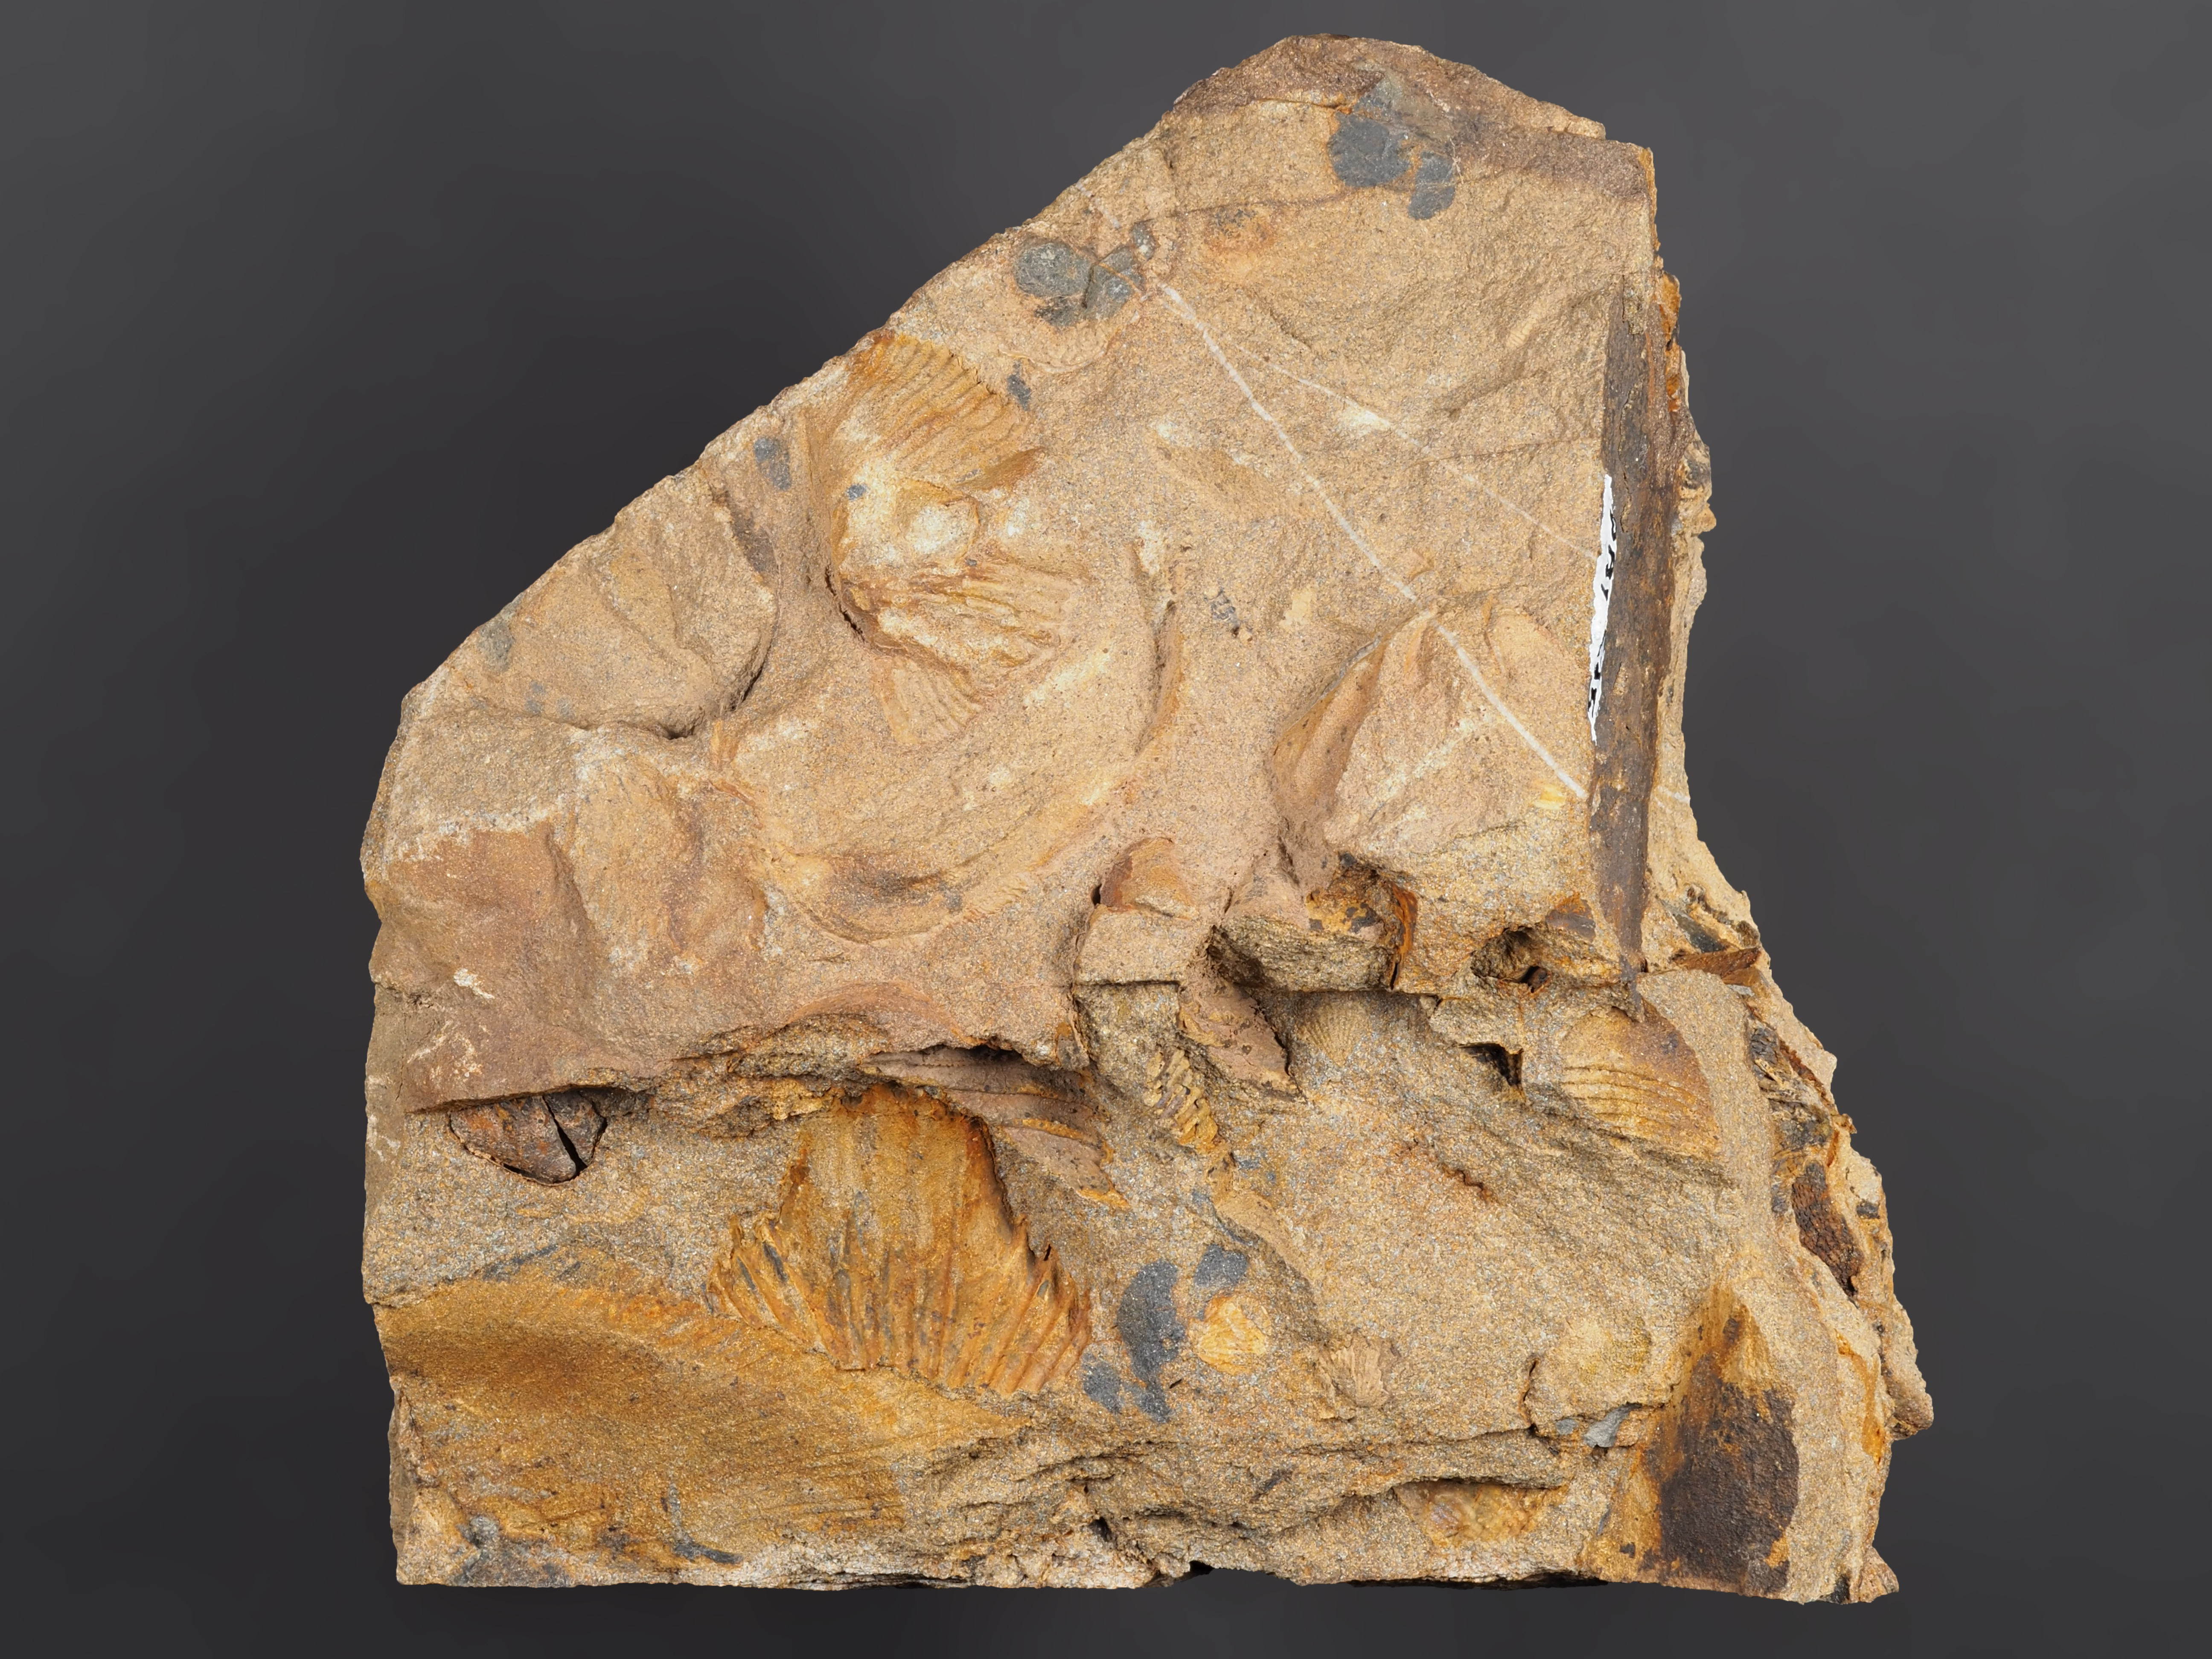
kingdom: Animalia
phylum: Brachiopoda
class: Rhynchonellata
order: Rhynchonellida
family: Trigonirhynchiidae
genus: Oligoptycherhynchus
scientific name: Oligoptycherhynchus
